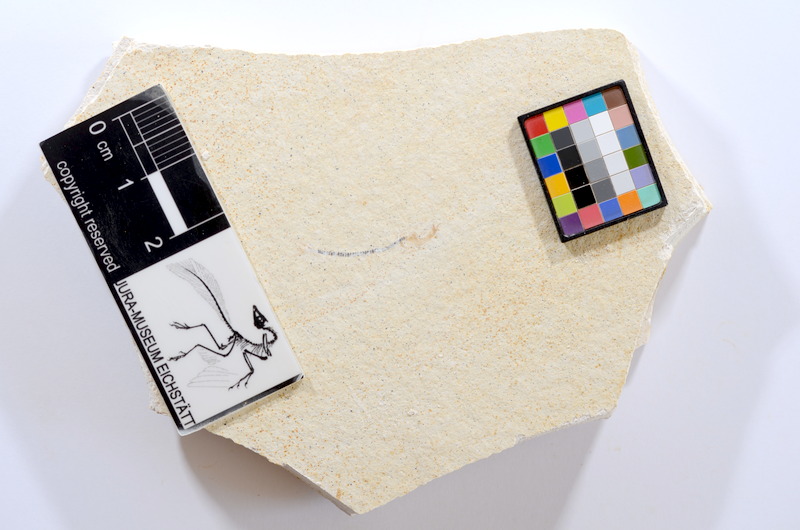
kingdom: Animalia
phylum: Chordata
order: Salmoniformes
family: Orthogonikleithridae
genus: Orthogonikleithrus
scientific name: Orthogonikleithrus hoelli
